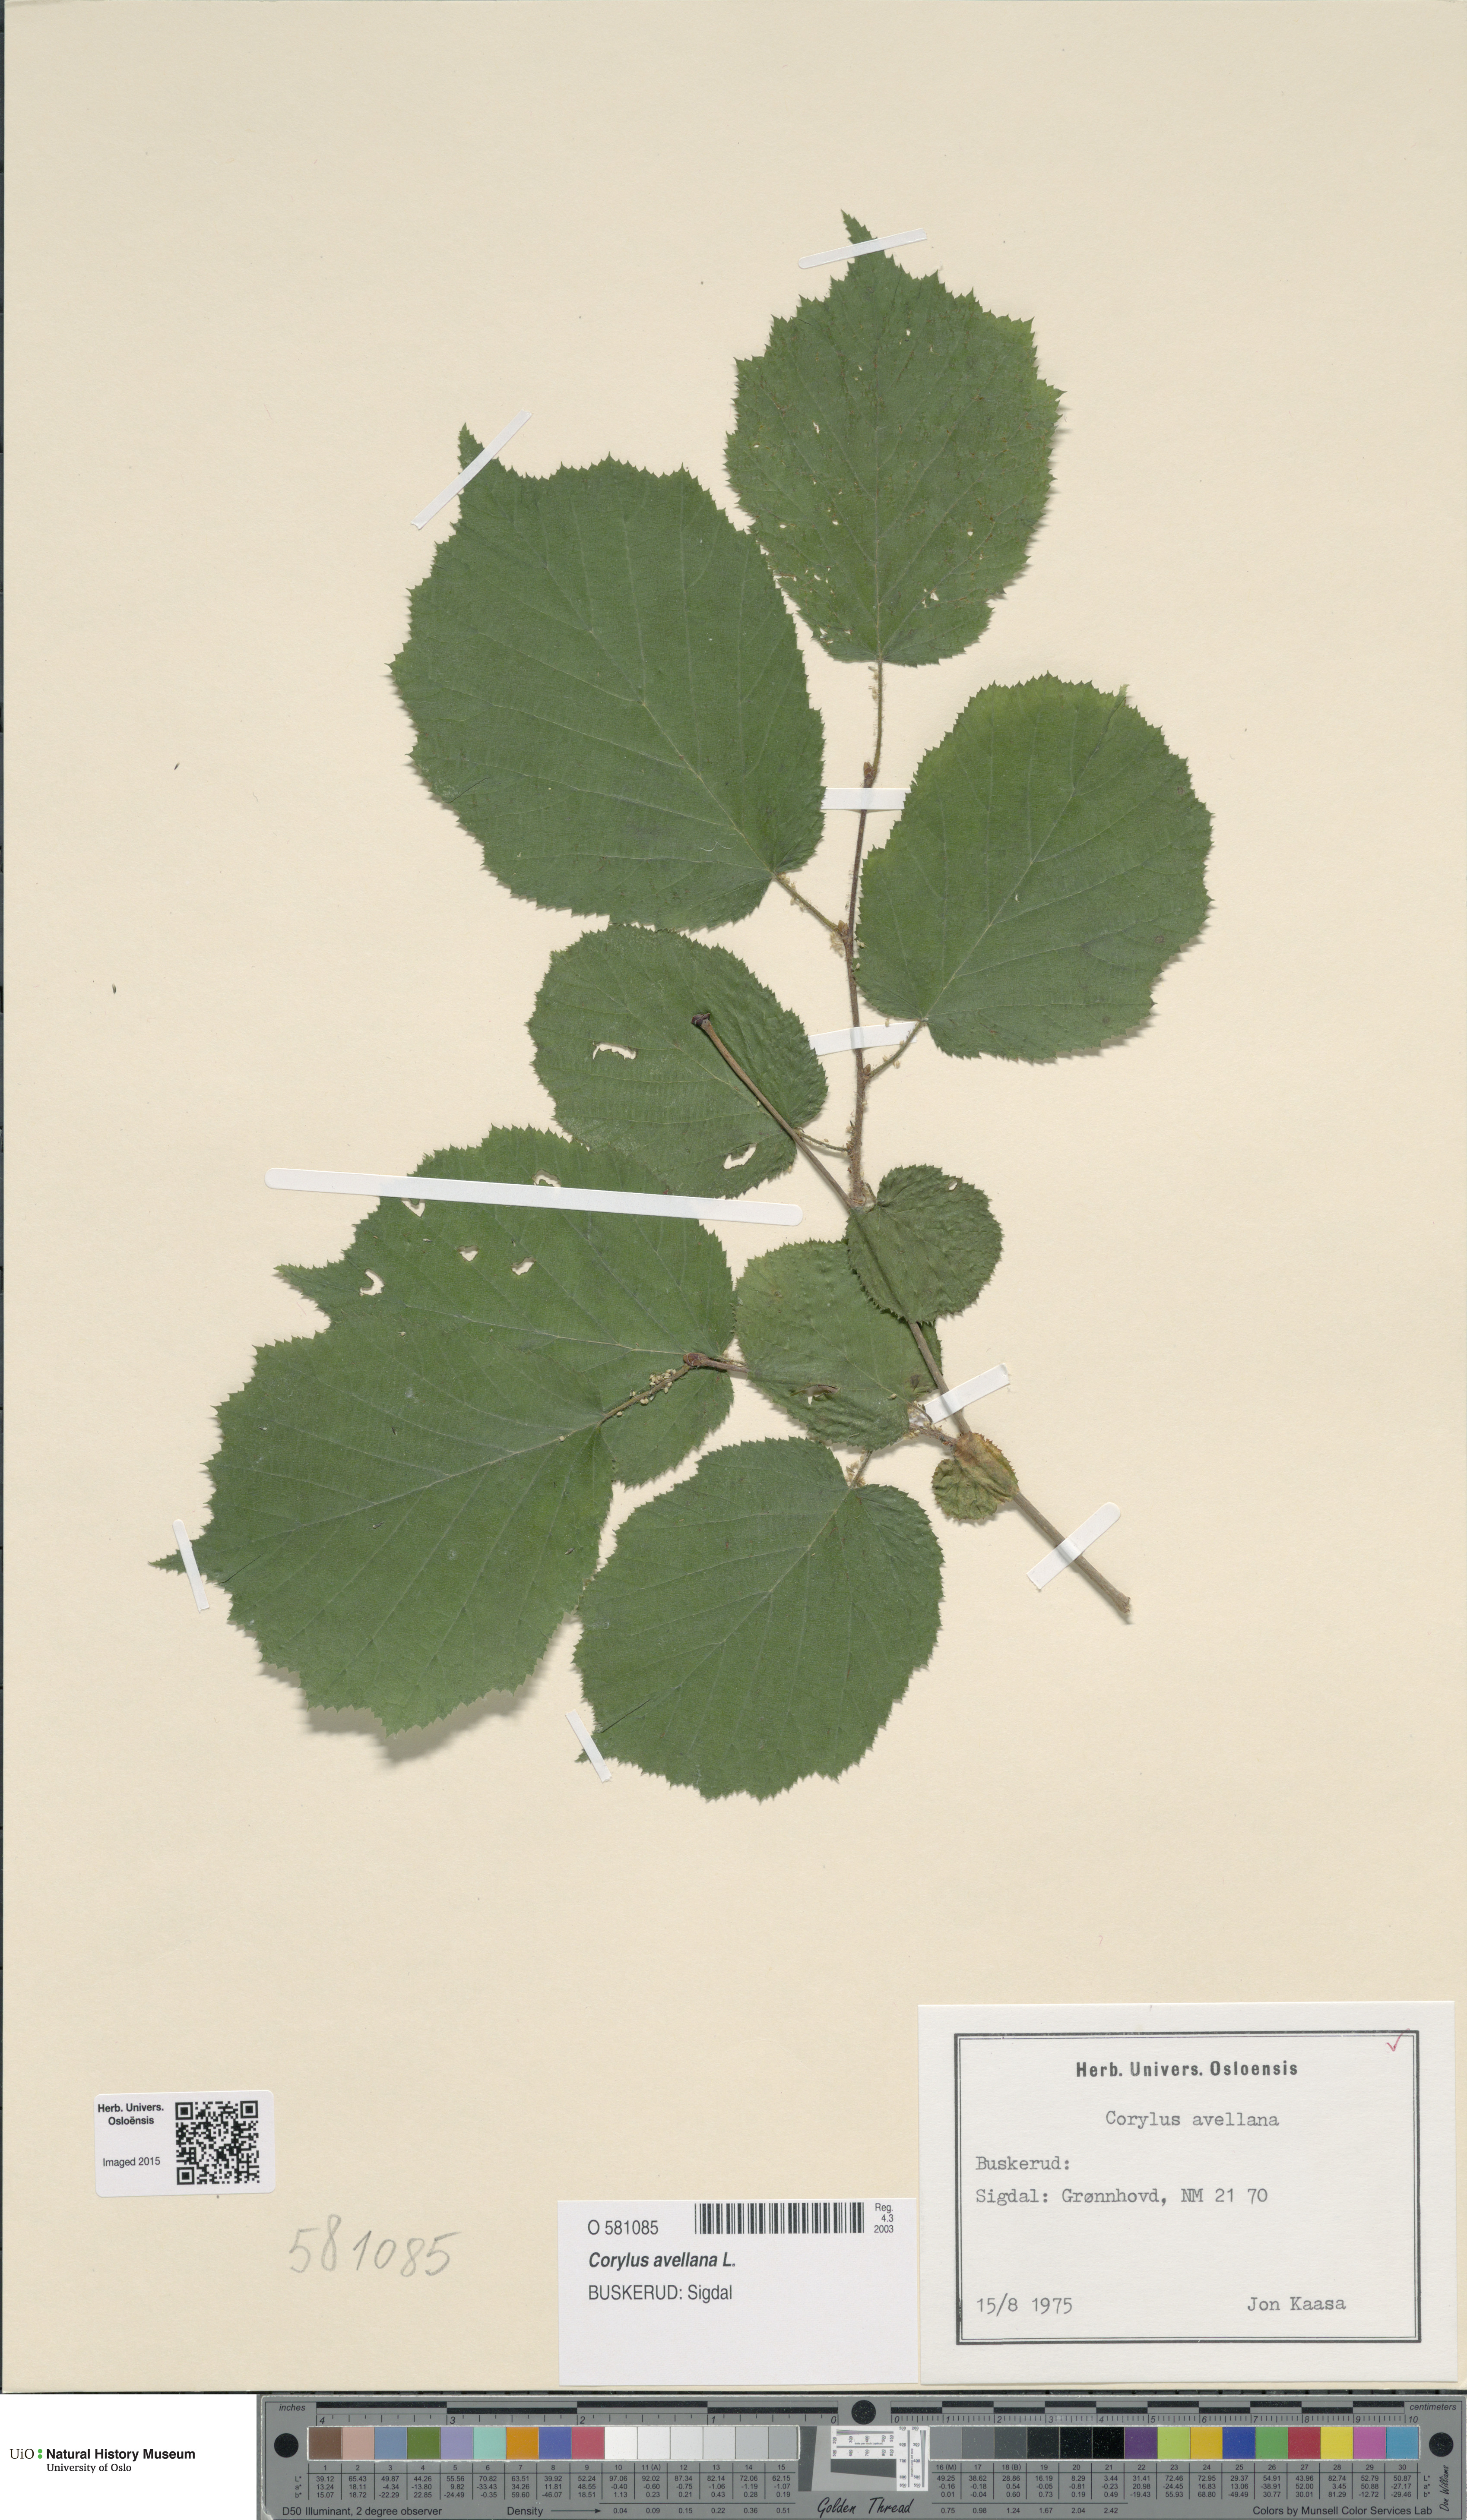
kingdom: Plantae
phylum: Tracheophyta
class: Magnoliopsida
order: Fagales
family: Betulaceae
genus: Corylus
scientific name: Corylus avellana
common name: European hazel
